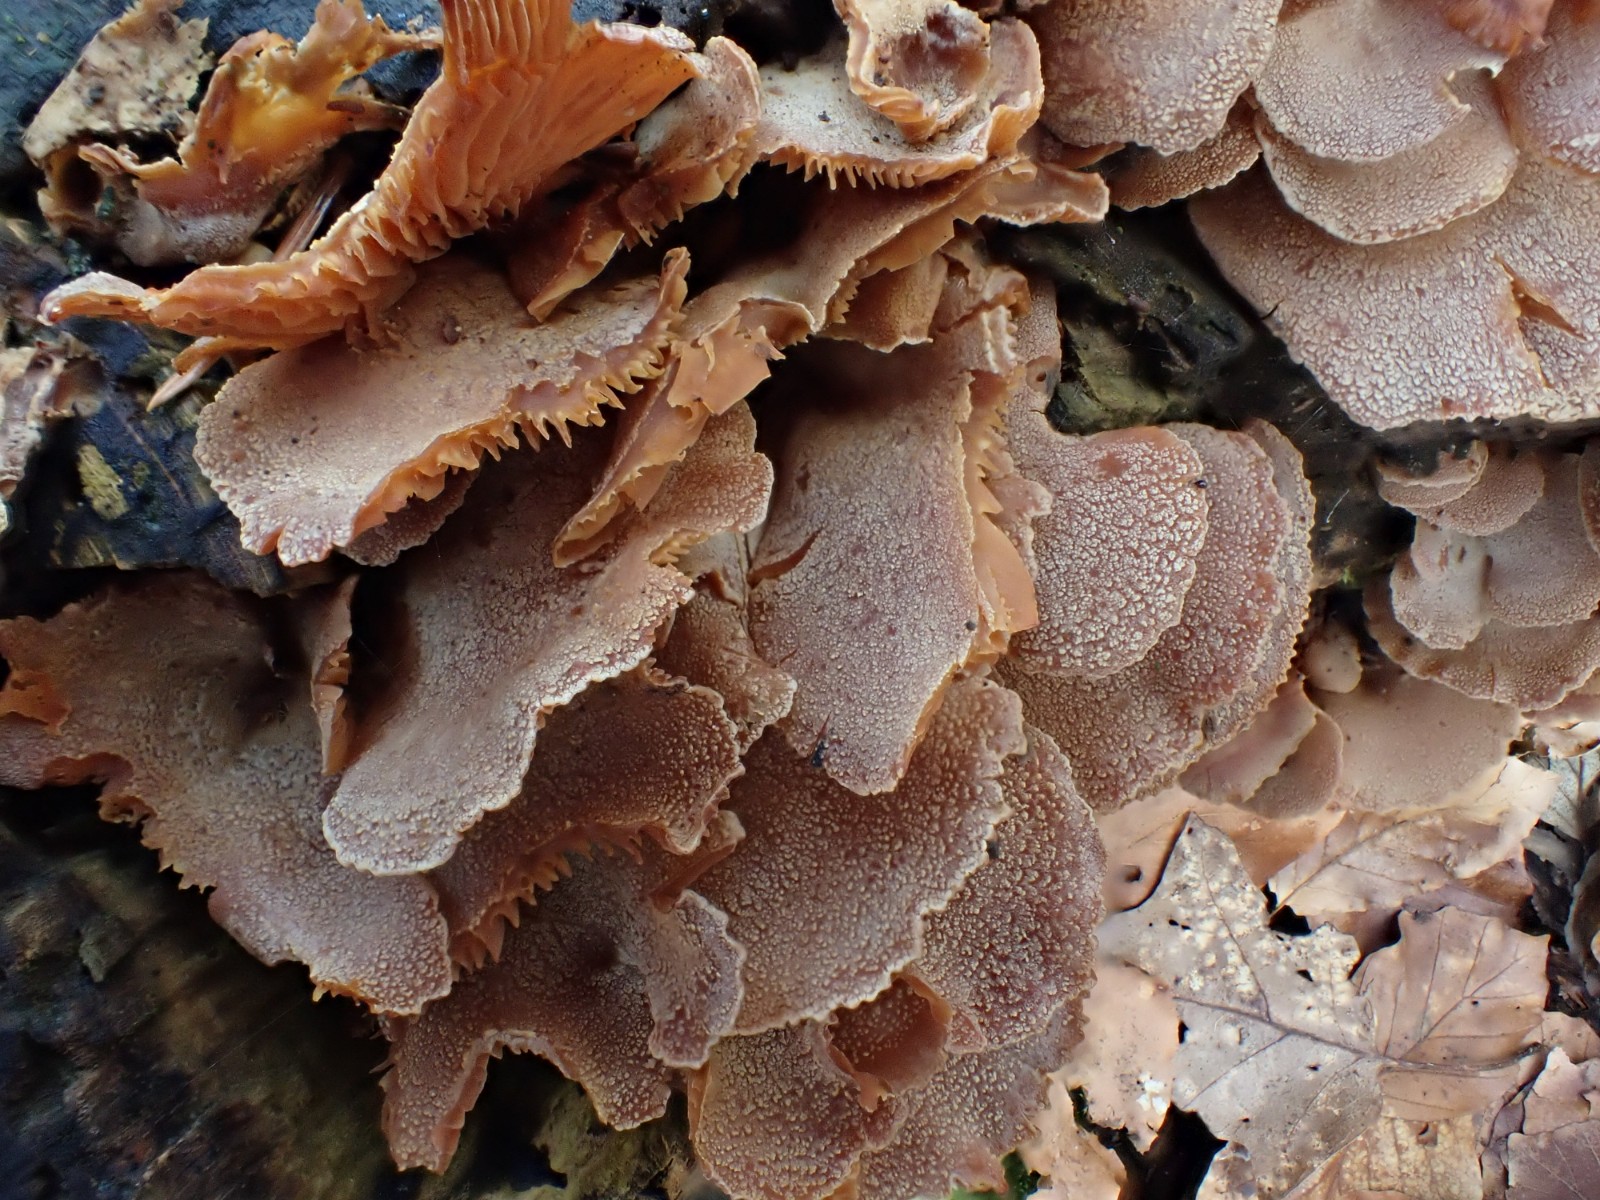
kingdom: Fungi
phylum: Basidiomycota
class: Agaricomycetes
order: Agaricales
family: Mycenaceae
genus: Panellus
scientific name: Panellus stipticus
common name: kliddet epaulethat
